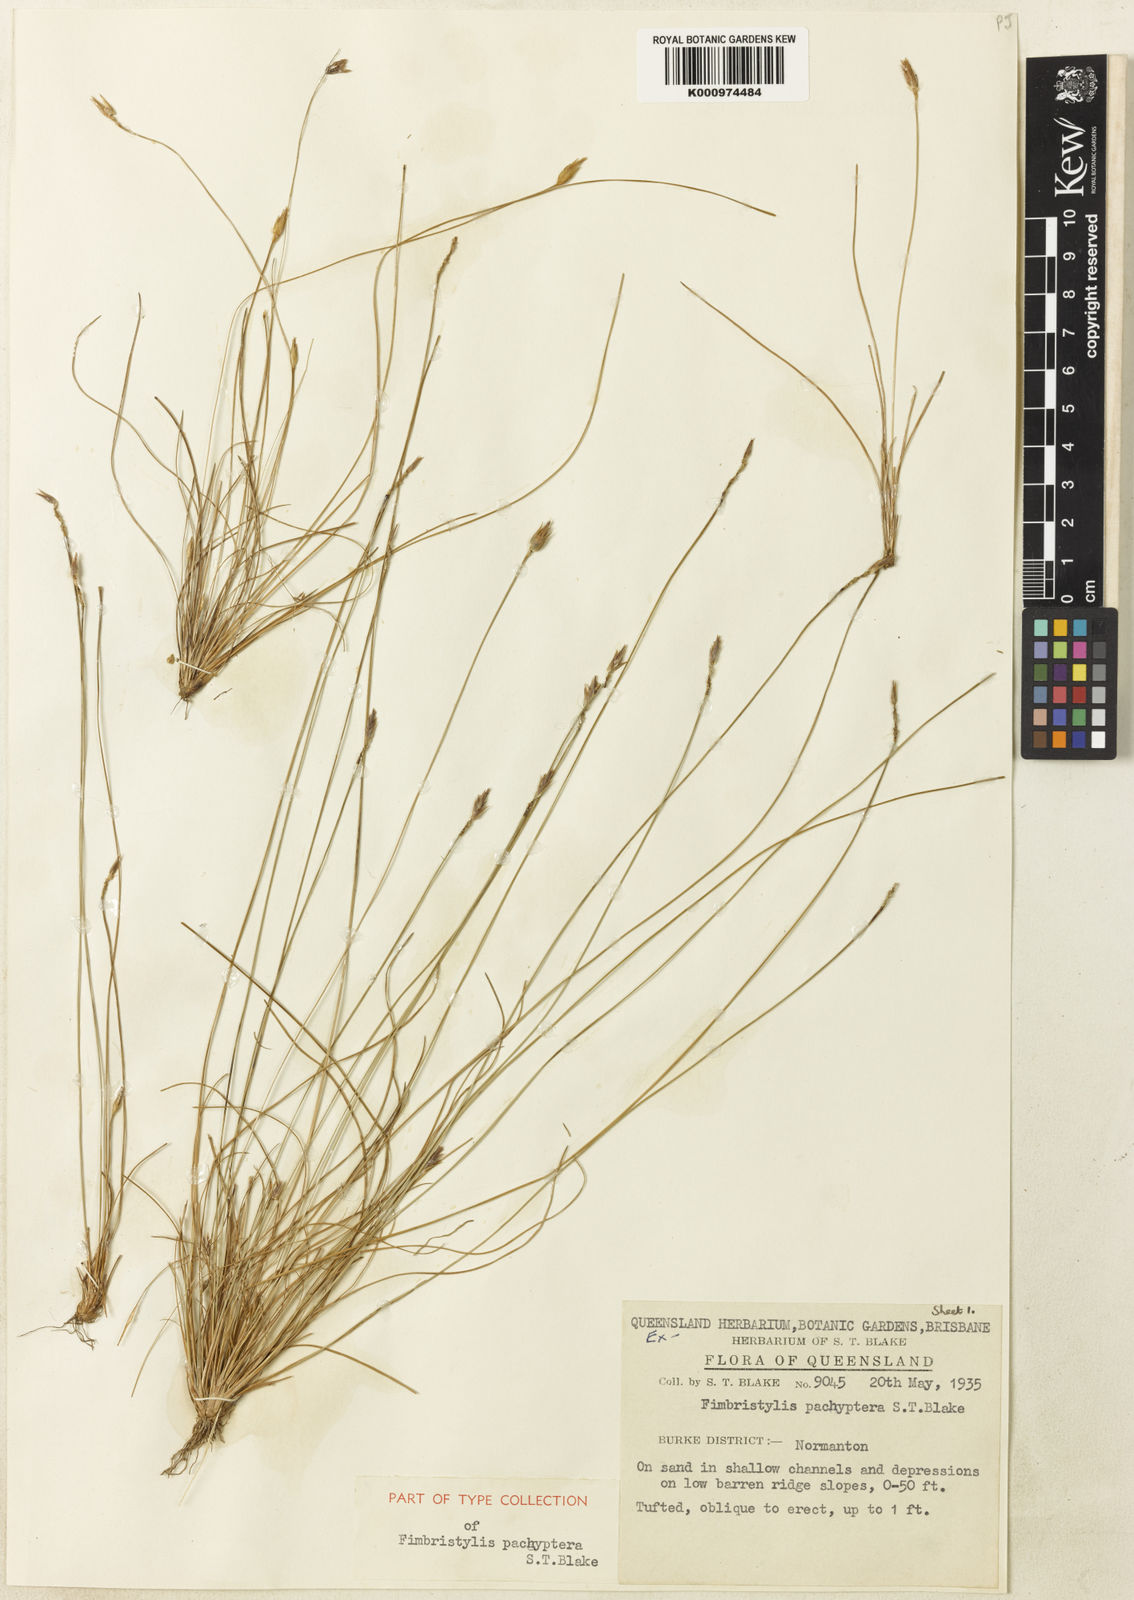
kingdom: Plantae
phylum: Tracheophyta
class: Liliopsida
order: Poales
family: Cyperaceae
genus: Abildgaardia
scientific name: Abildgaardia pachyptera
